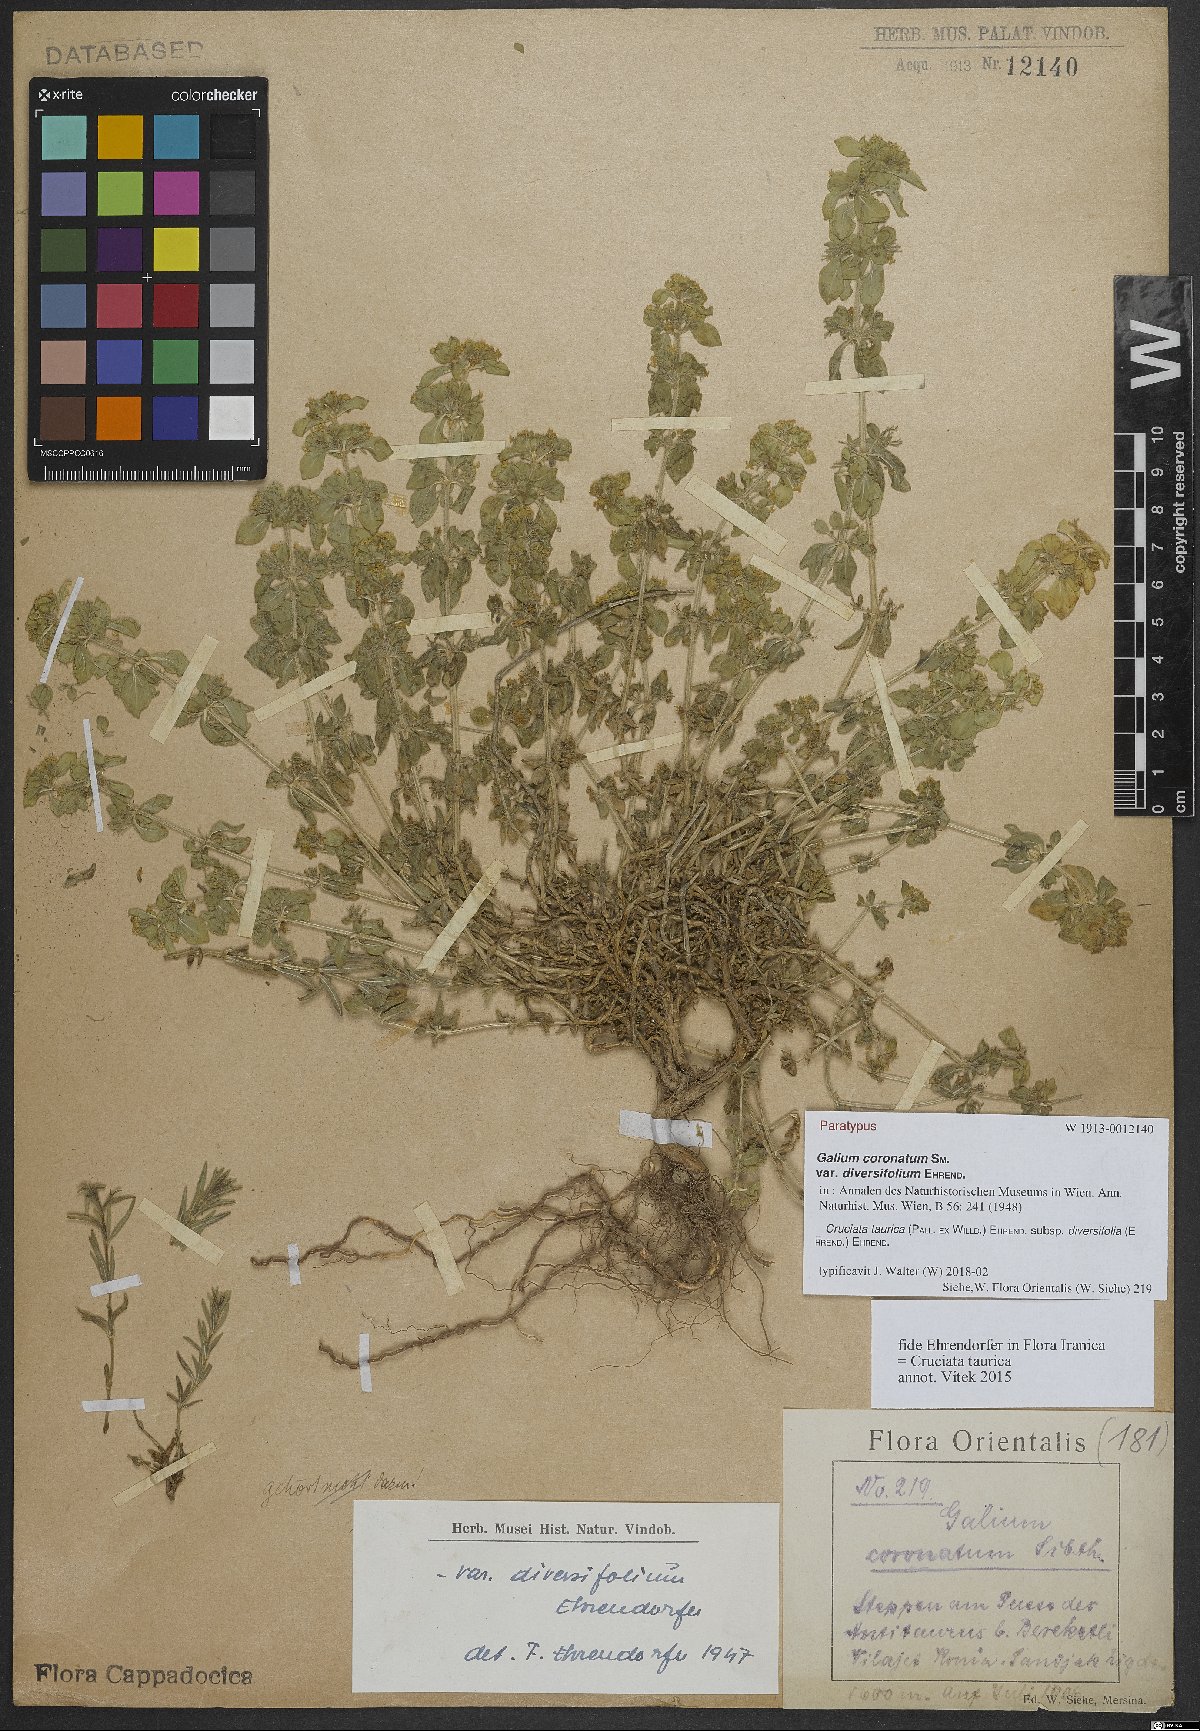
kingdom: Plantae
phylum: Tracheophyta
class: Magnoliopsida
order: Gentianales
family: Rubiaceae
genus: Cruciata
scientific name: Cruciata taurica
